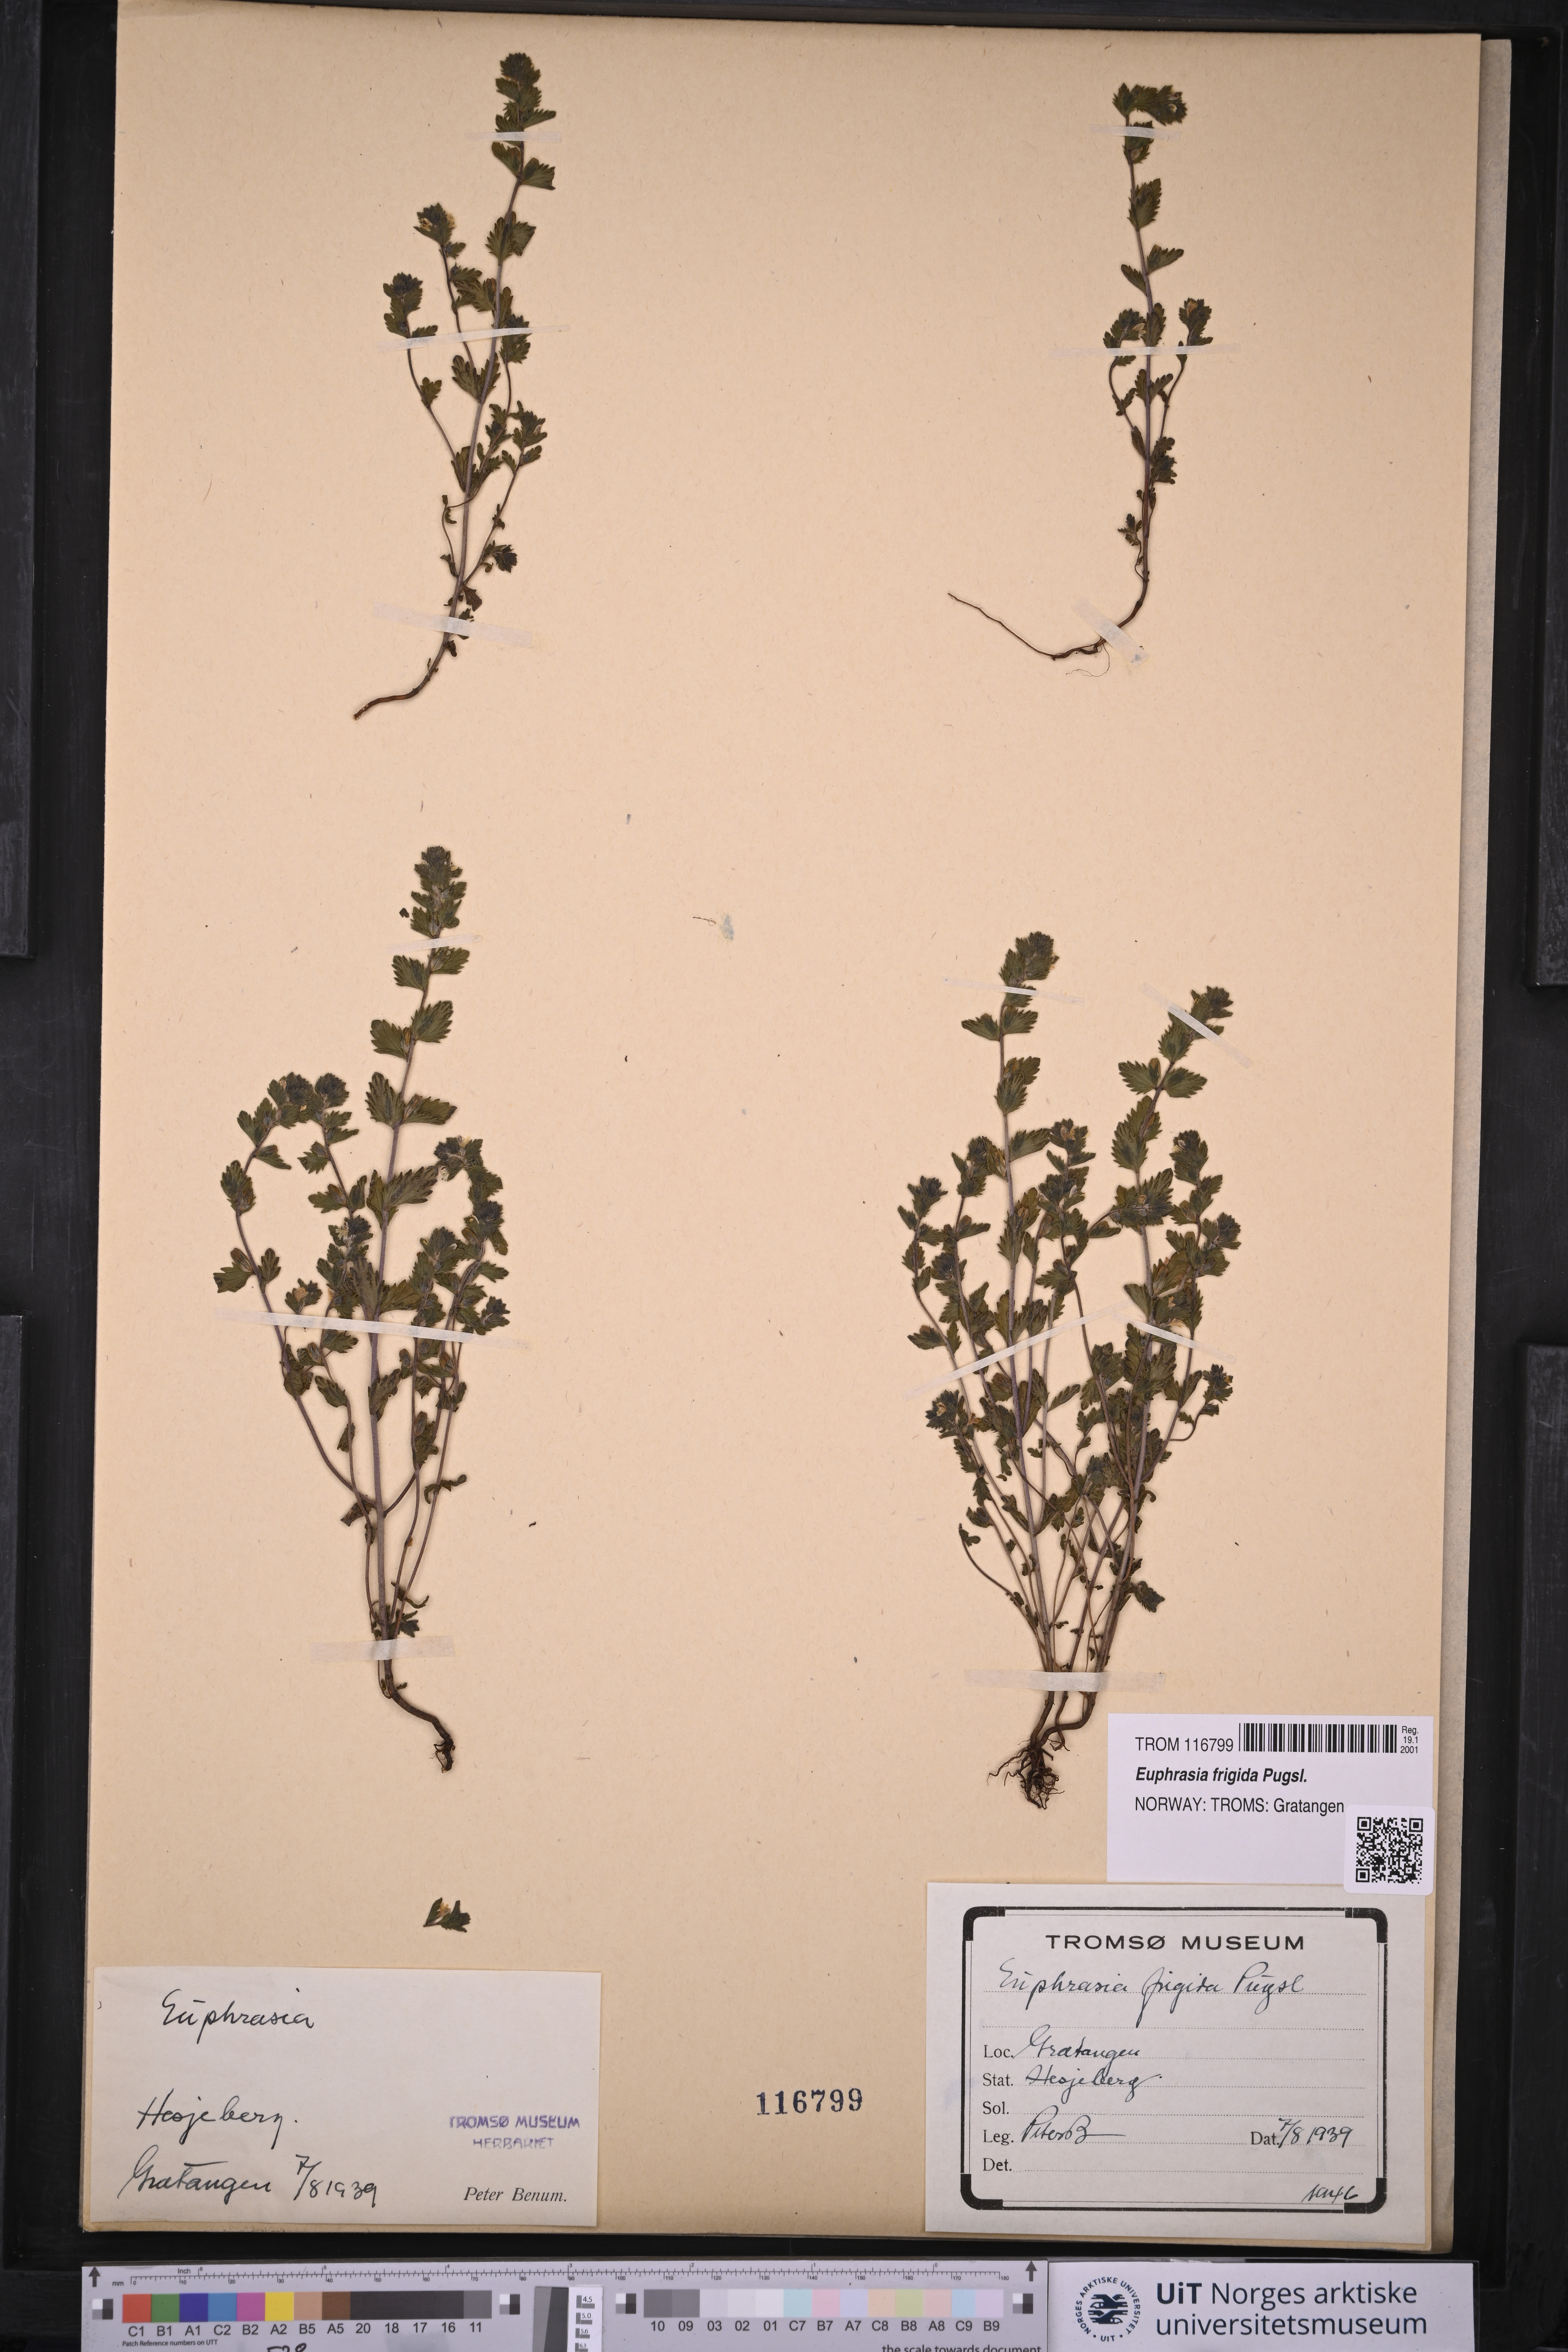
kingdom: Plantae
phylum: Tracheophyta
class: Magnoliopsida
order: Lamiales
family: Orobanchaceae
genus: Euphrasia
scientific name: Euphrasia frigida
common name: An eyebright
